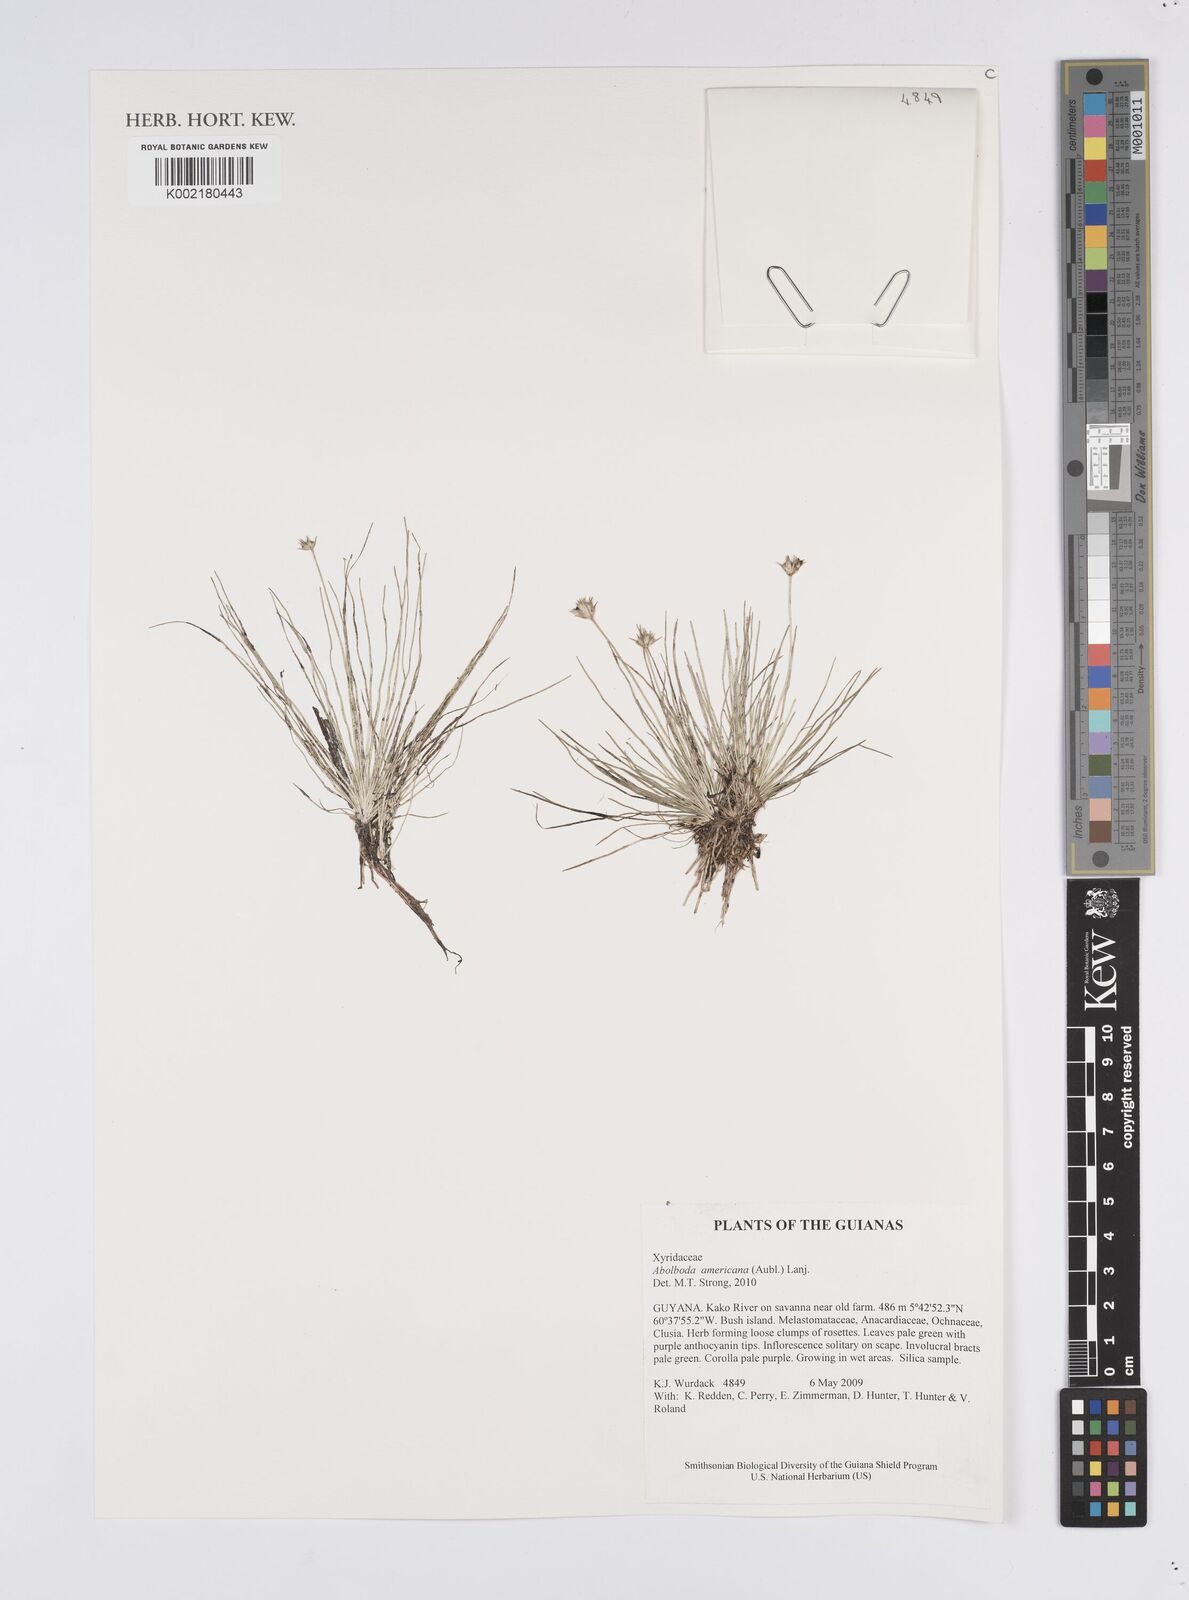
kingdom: Plantae
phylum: Tracheophyta
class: Liliopsida
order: Poales
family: Xyridaceae
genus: Abolboda
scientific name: Abolboda americana
